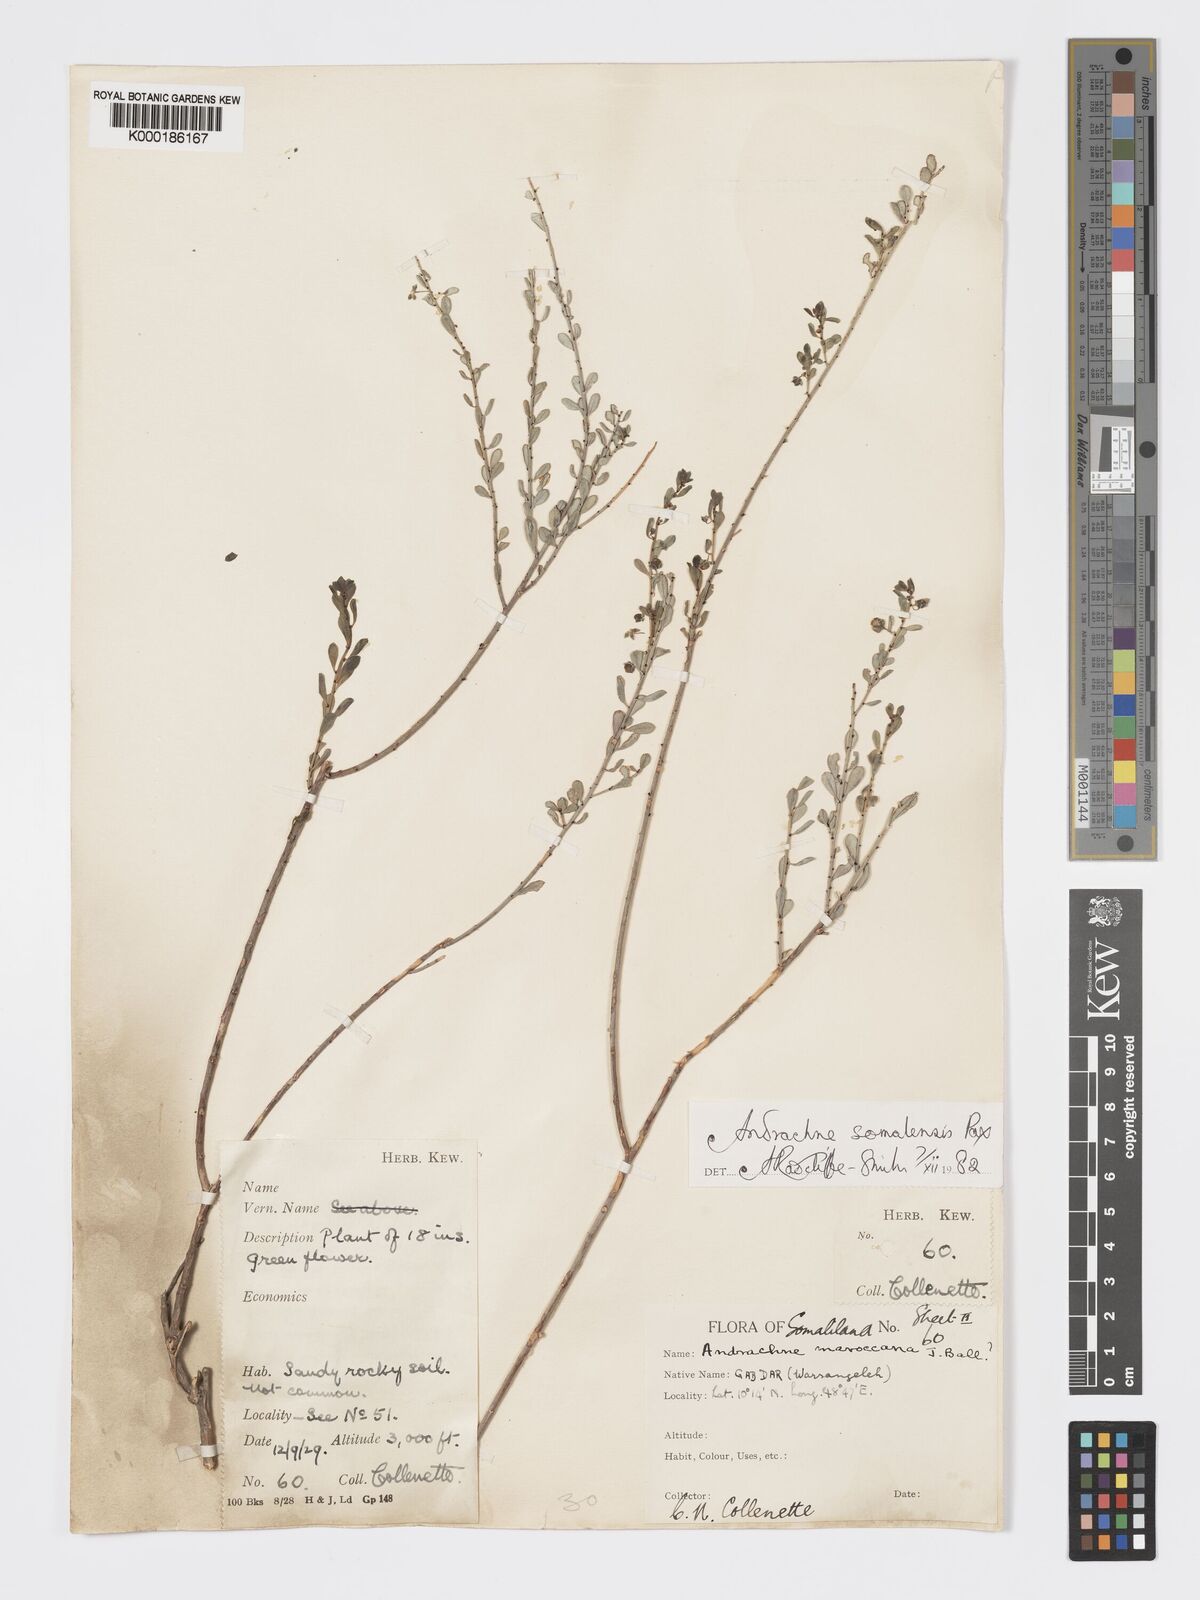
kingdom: Plantae
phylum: Tracheophyta
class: Magnoliopsida
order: Malpighiales
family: Phyllanthaceae
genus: Andrachne
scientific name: Andrachne schweinfurthii
